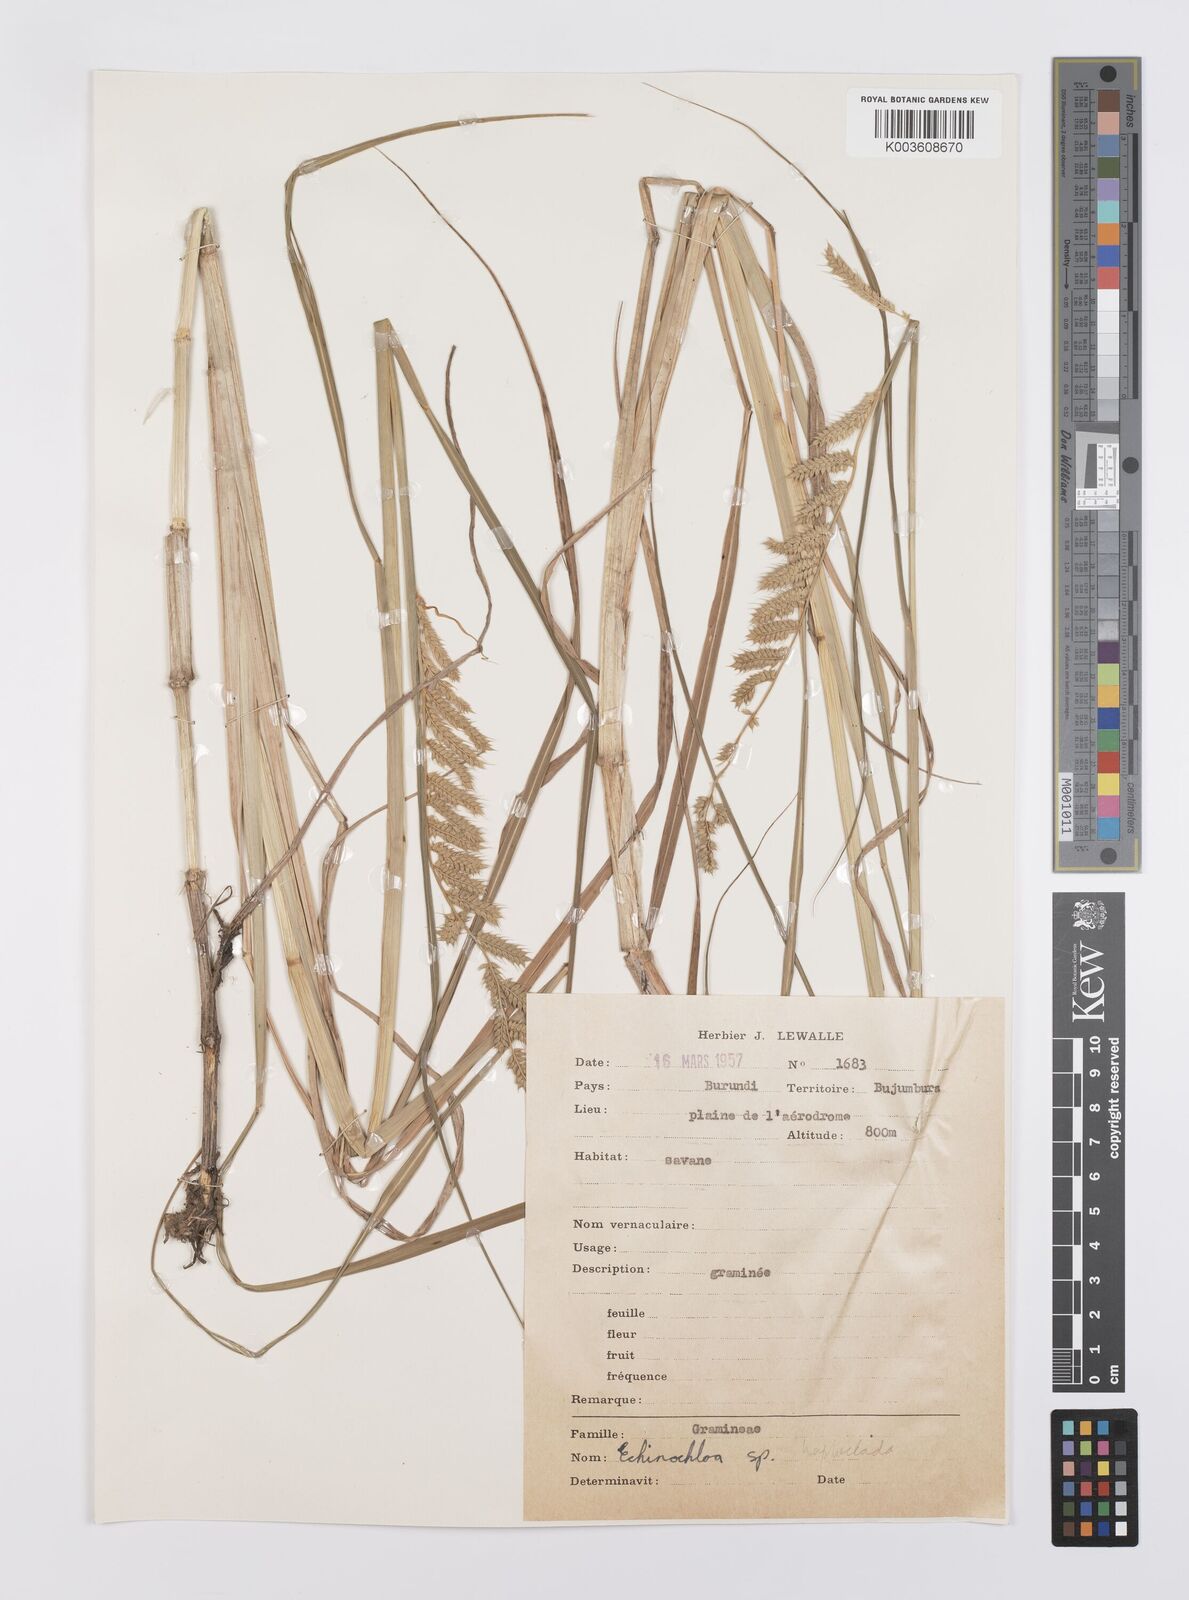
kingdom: Plantae
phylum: Tracheophyta
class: Liliopsida
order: Poales
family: Poaceae
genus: Echinochloa
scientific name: Echinochloa haploclada
